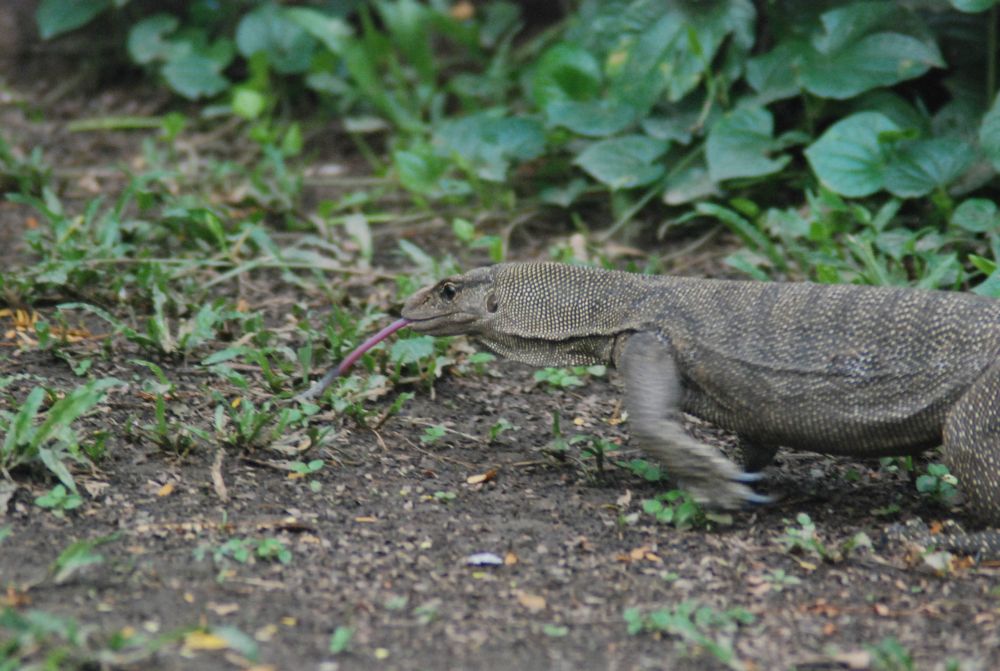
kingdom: Animalia
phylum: Chordata
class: Squamata
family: Varanidae
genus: Varanus
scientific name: Varanus nebulosus
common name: Clouded monitor
